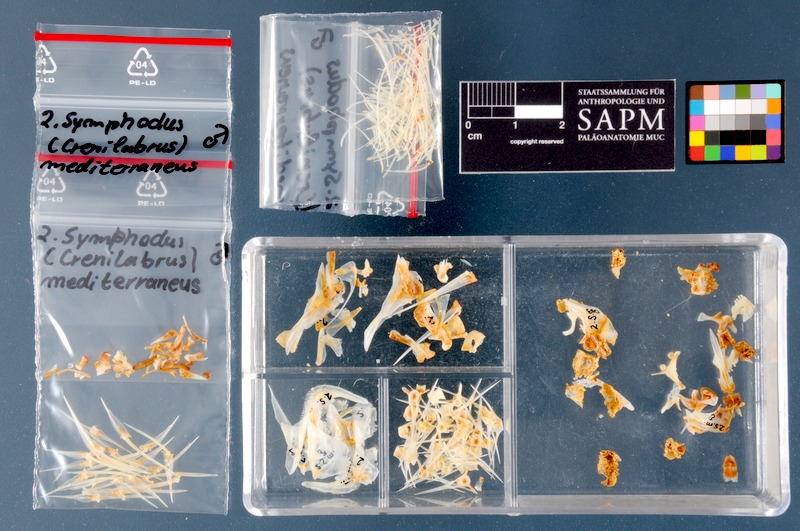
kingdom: Animalia
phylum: Chordata
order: Perciformes
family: Labridae
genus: Symphodus
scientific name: Symphodus mediterraneus
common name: Axillary wrasse
